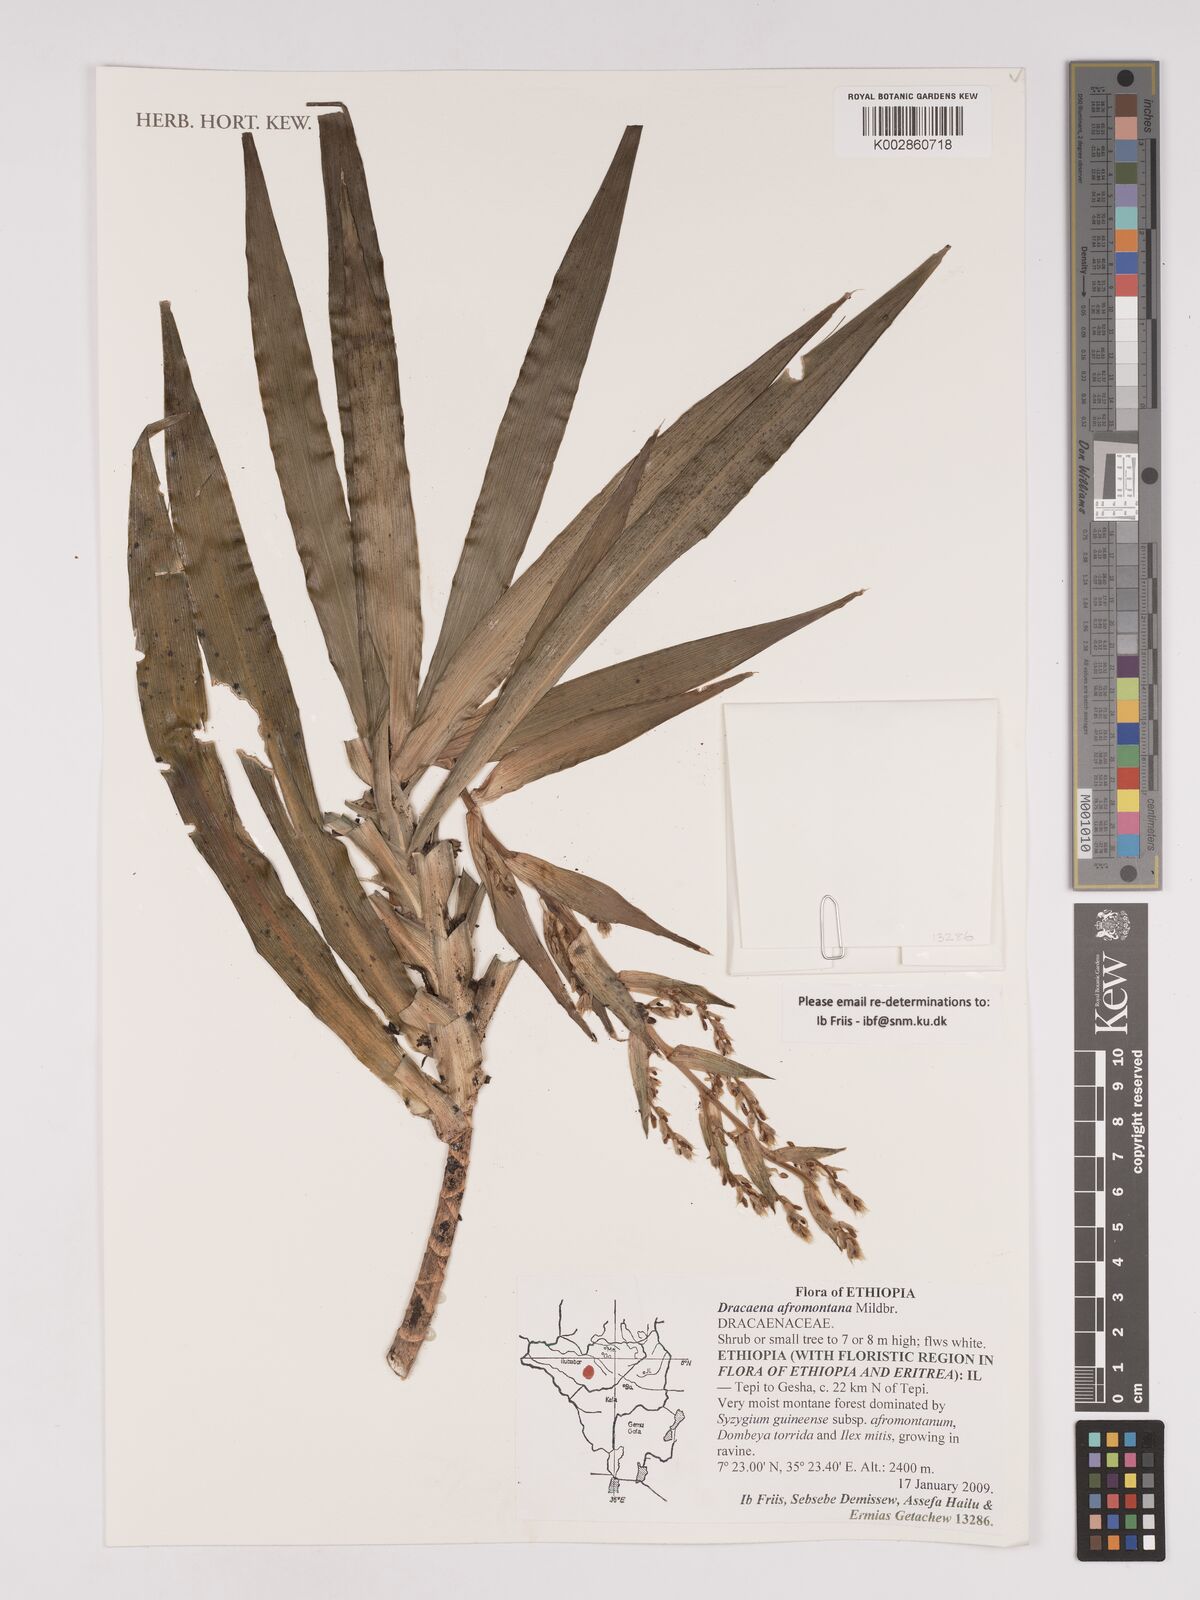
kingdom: Plantae
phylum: Tracheophyta
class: Liliopsida
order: Asparagales
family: Asparagaceae
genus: Dracaena
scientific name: Dracaena afromontana
